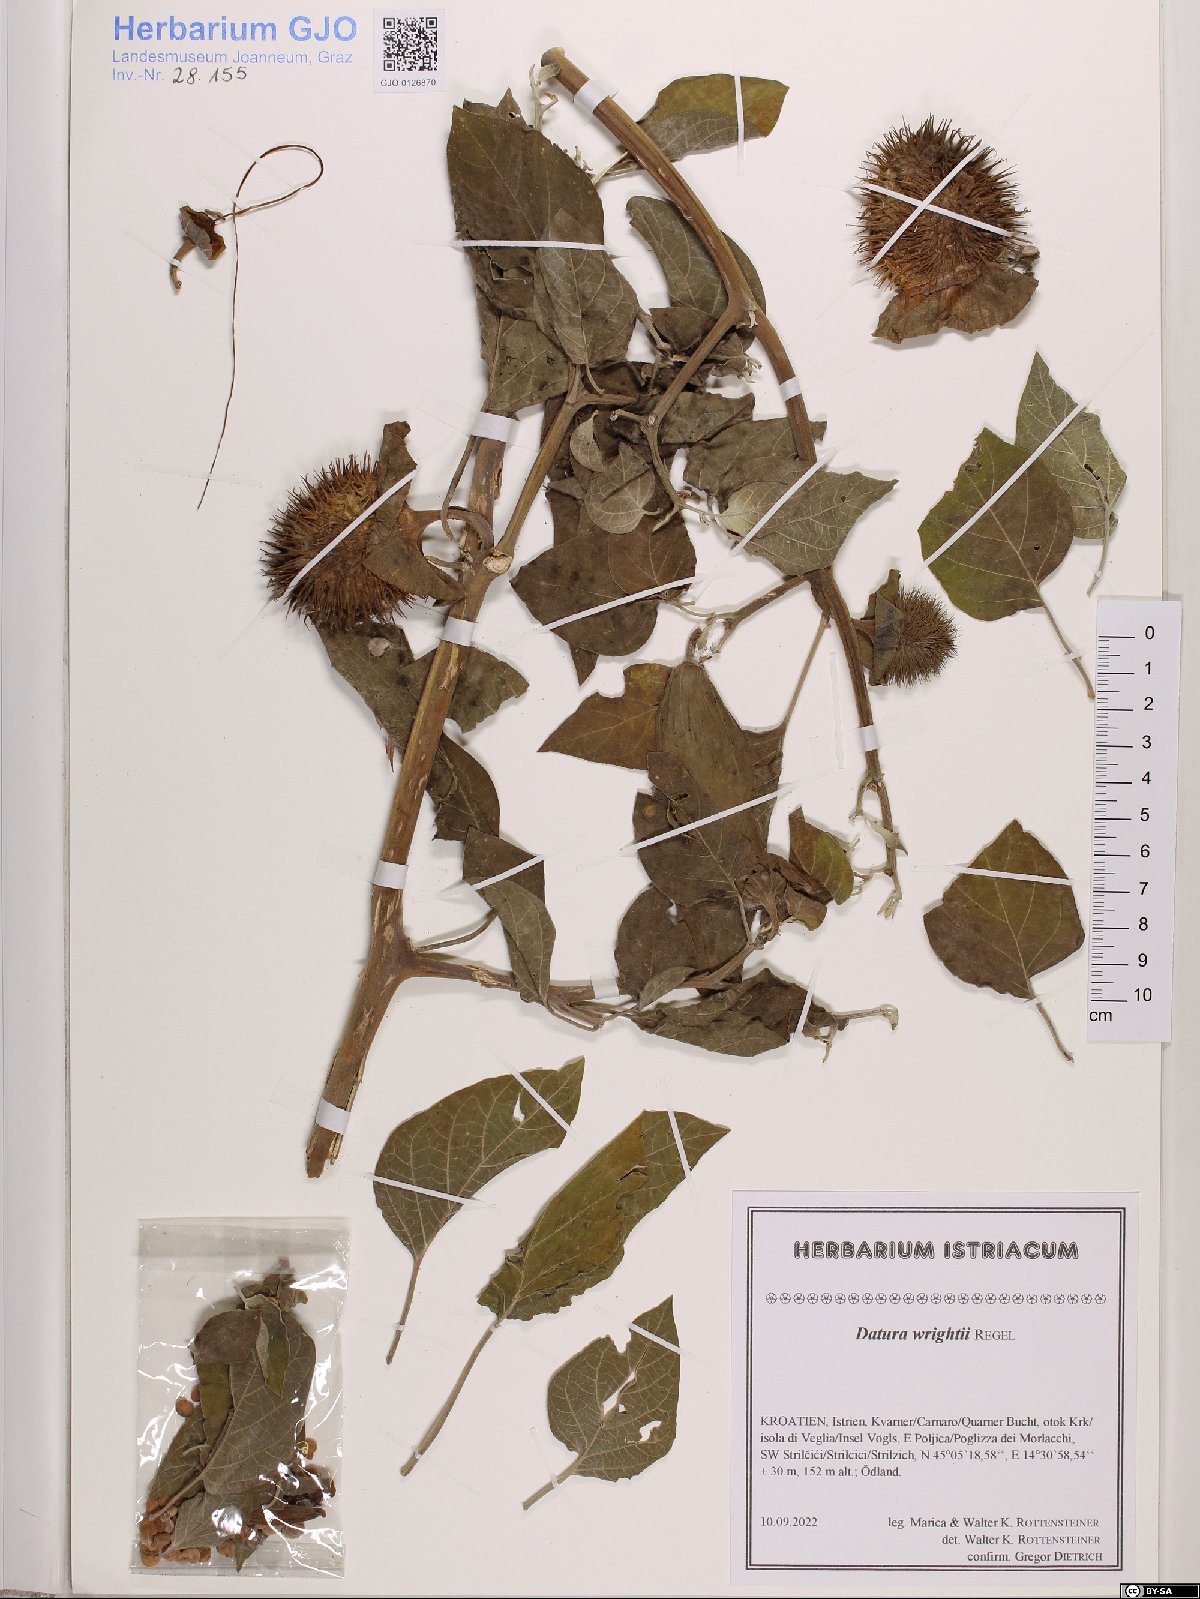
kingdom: Plantae
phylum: Tracheophyta
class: Magnoliopsida
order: Asterales
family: Asteraceae
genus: Centaurea
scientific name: Centaurea solstitialis
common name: Yellow star-thistle
